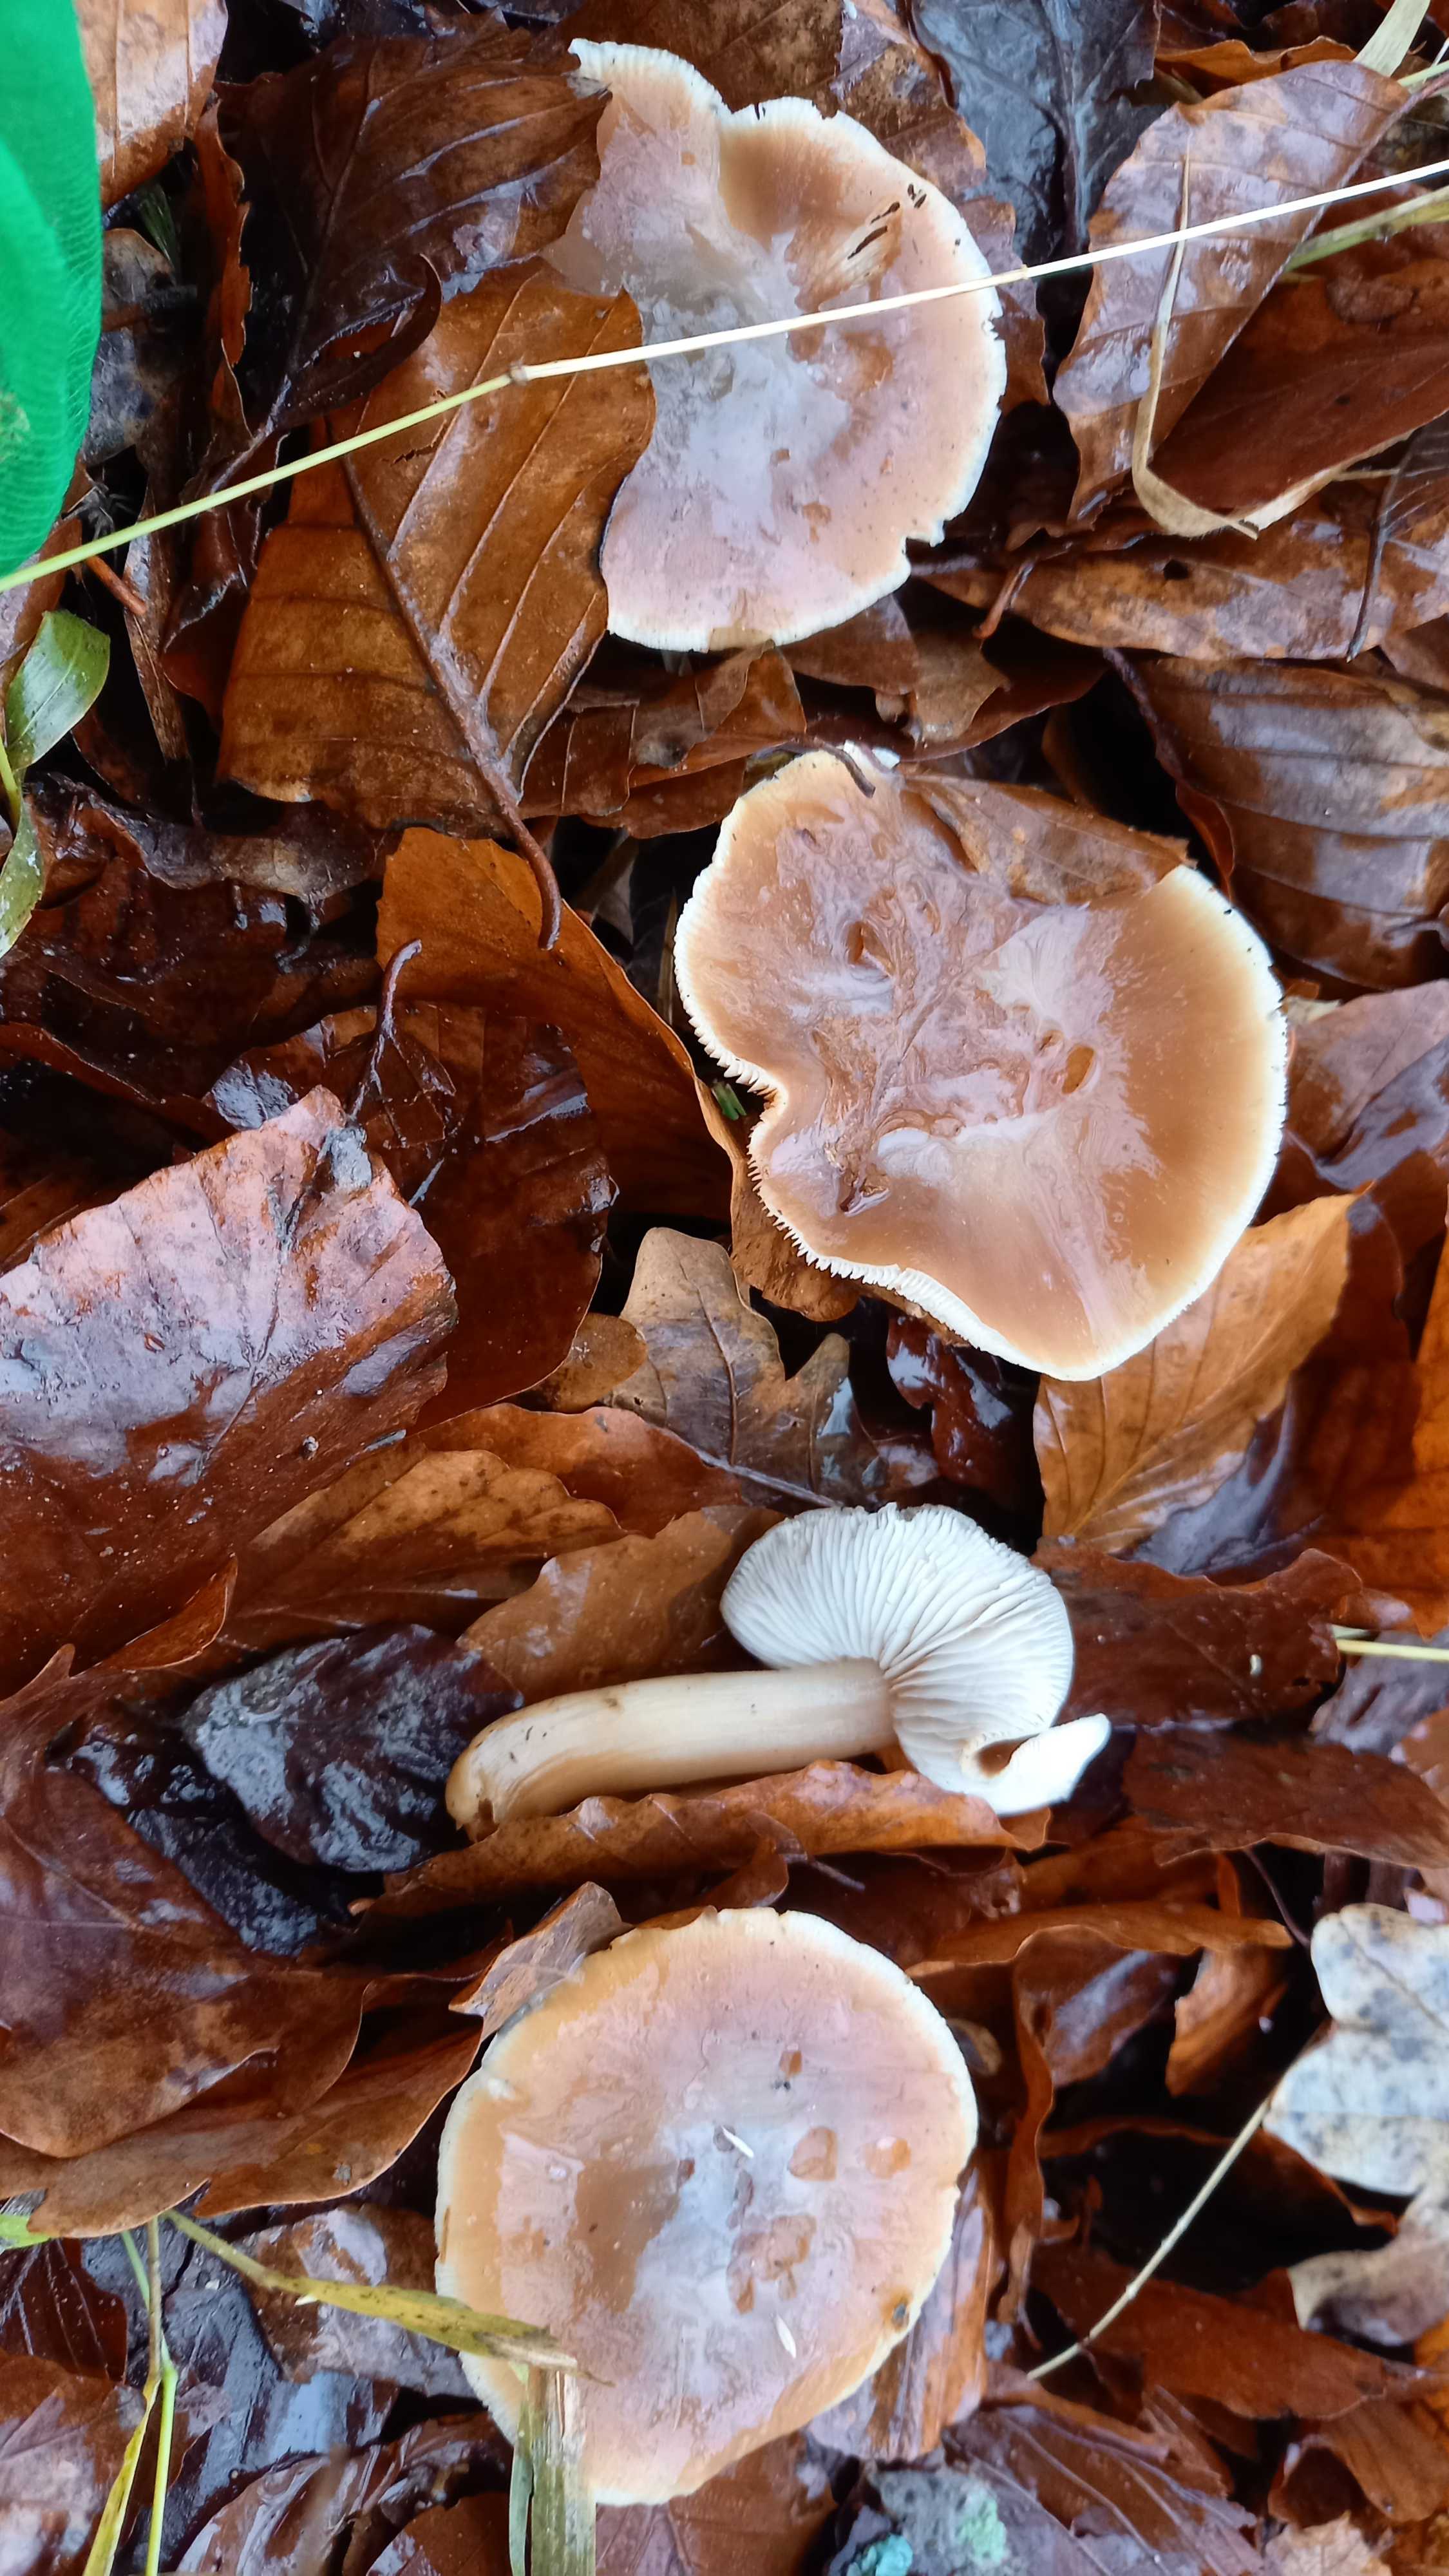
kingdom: Fungi
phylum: Basidiomycota
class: Agaricomycetes
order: Agaricales
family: Omphalotaceae
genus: Rhodocollybia
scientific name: Rhodocollybia asema
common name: horngrå fladhat
